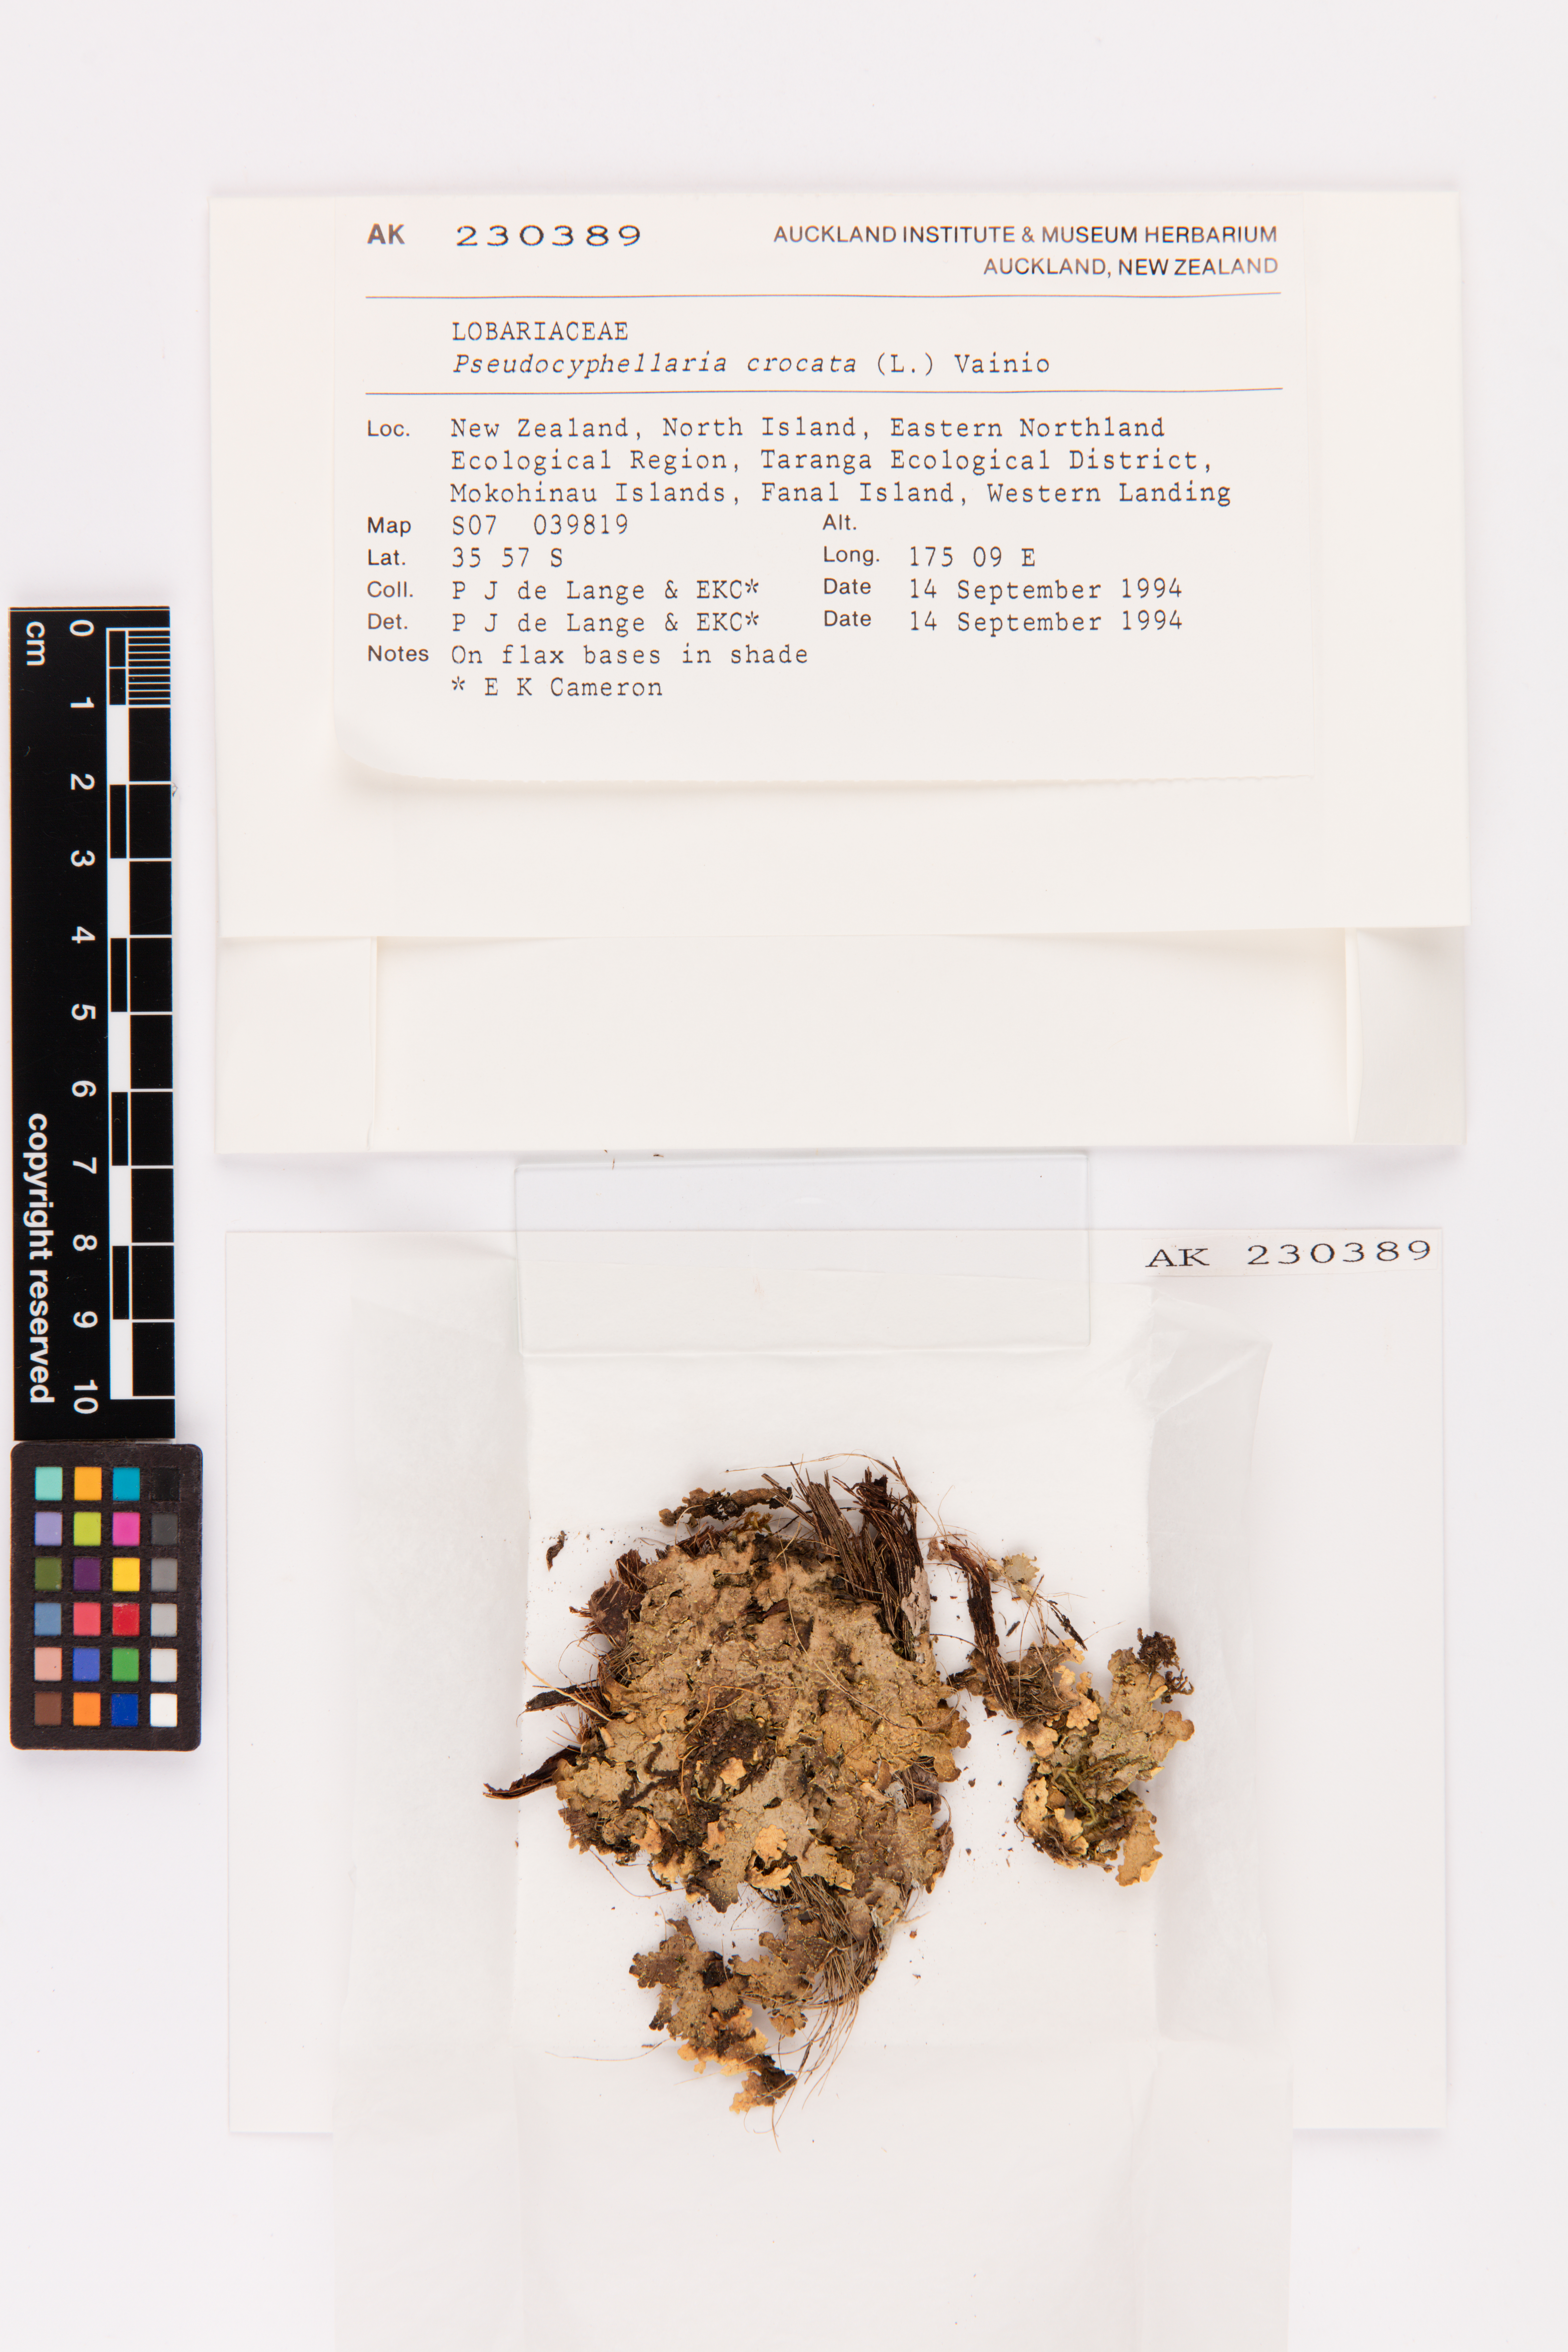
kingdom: Fungi
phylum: Ascomycota
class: Lecanoromycetes
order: Peltigerales
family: Lobariaceae
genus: Pseudocyphellaria
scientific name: Pseudocyphellaria crocata
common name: Golden specklebelly
